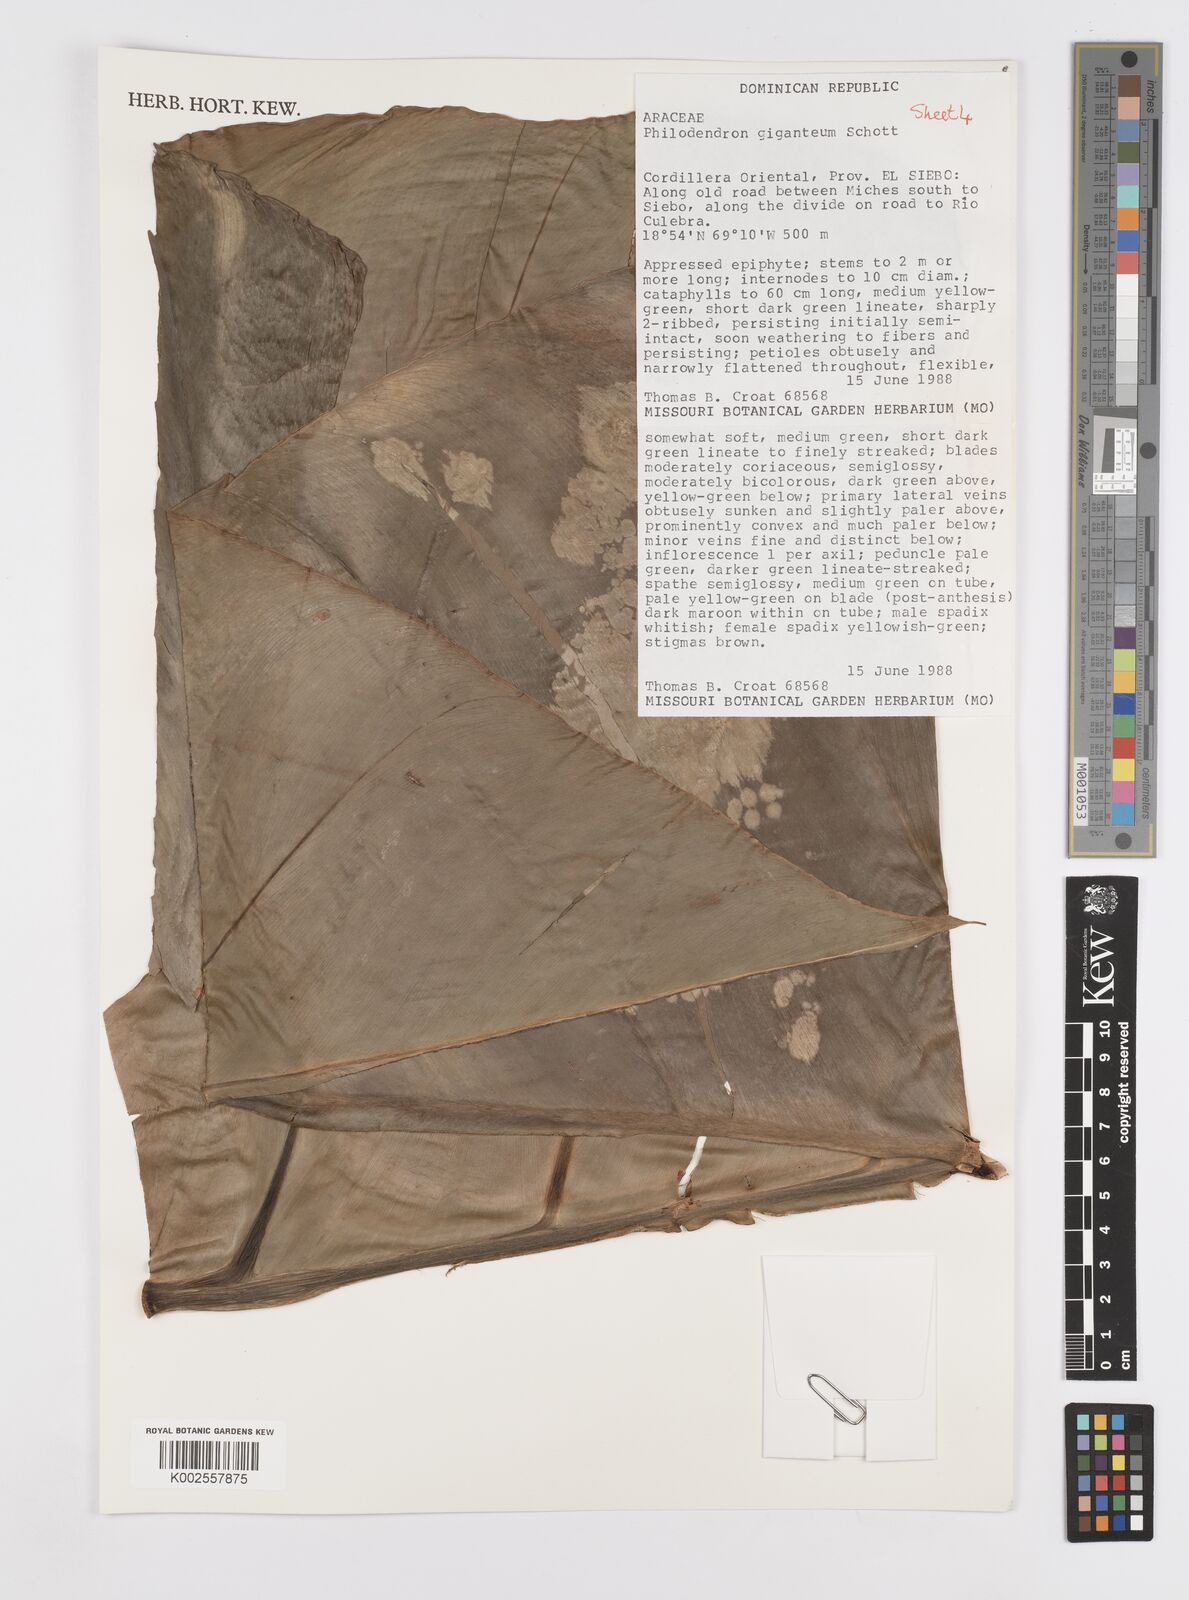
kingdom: Plantae
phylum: Tracheophyta
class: Liliopsida
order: Alismatales
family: Araceae
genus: Philodendron
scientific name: Philodendron
